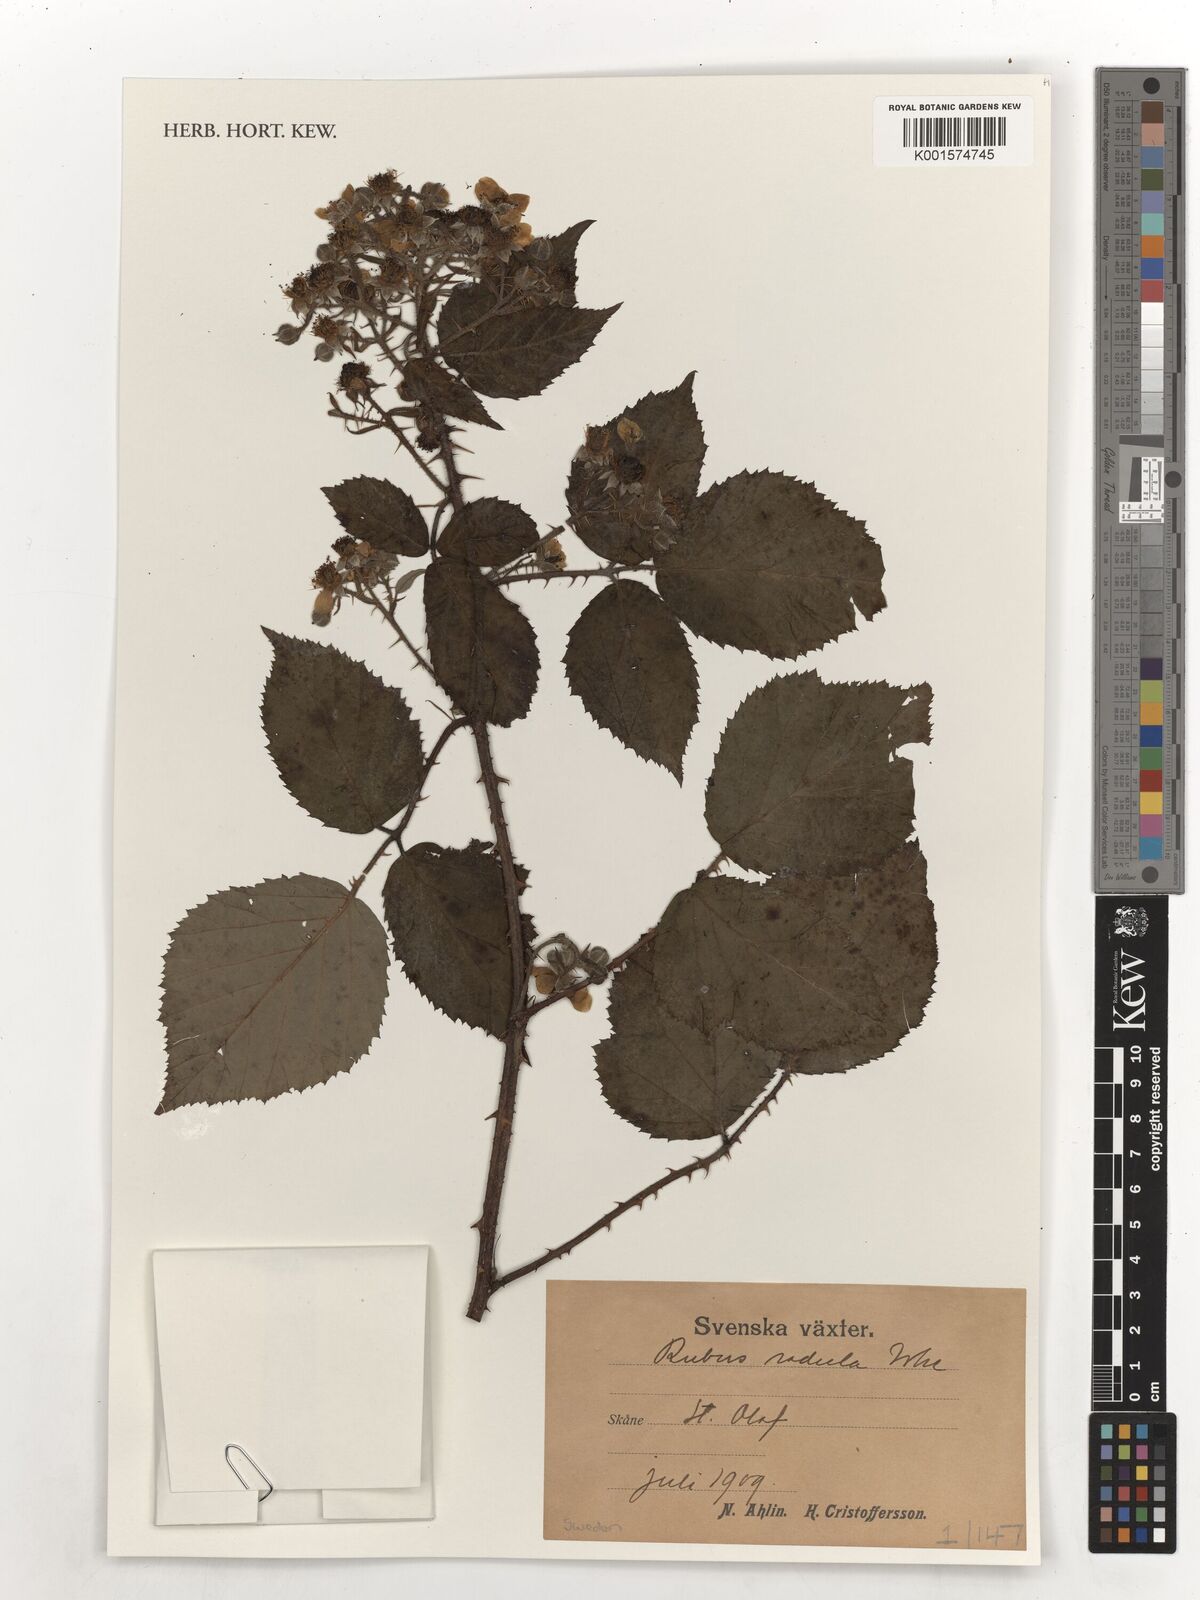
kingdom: Plantae
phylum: Tracheophyta
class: Magnoliopsida
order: Rosales
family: Rosaceae
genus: Rubus
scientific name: Rubus radula
